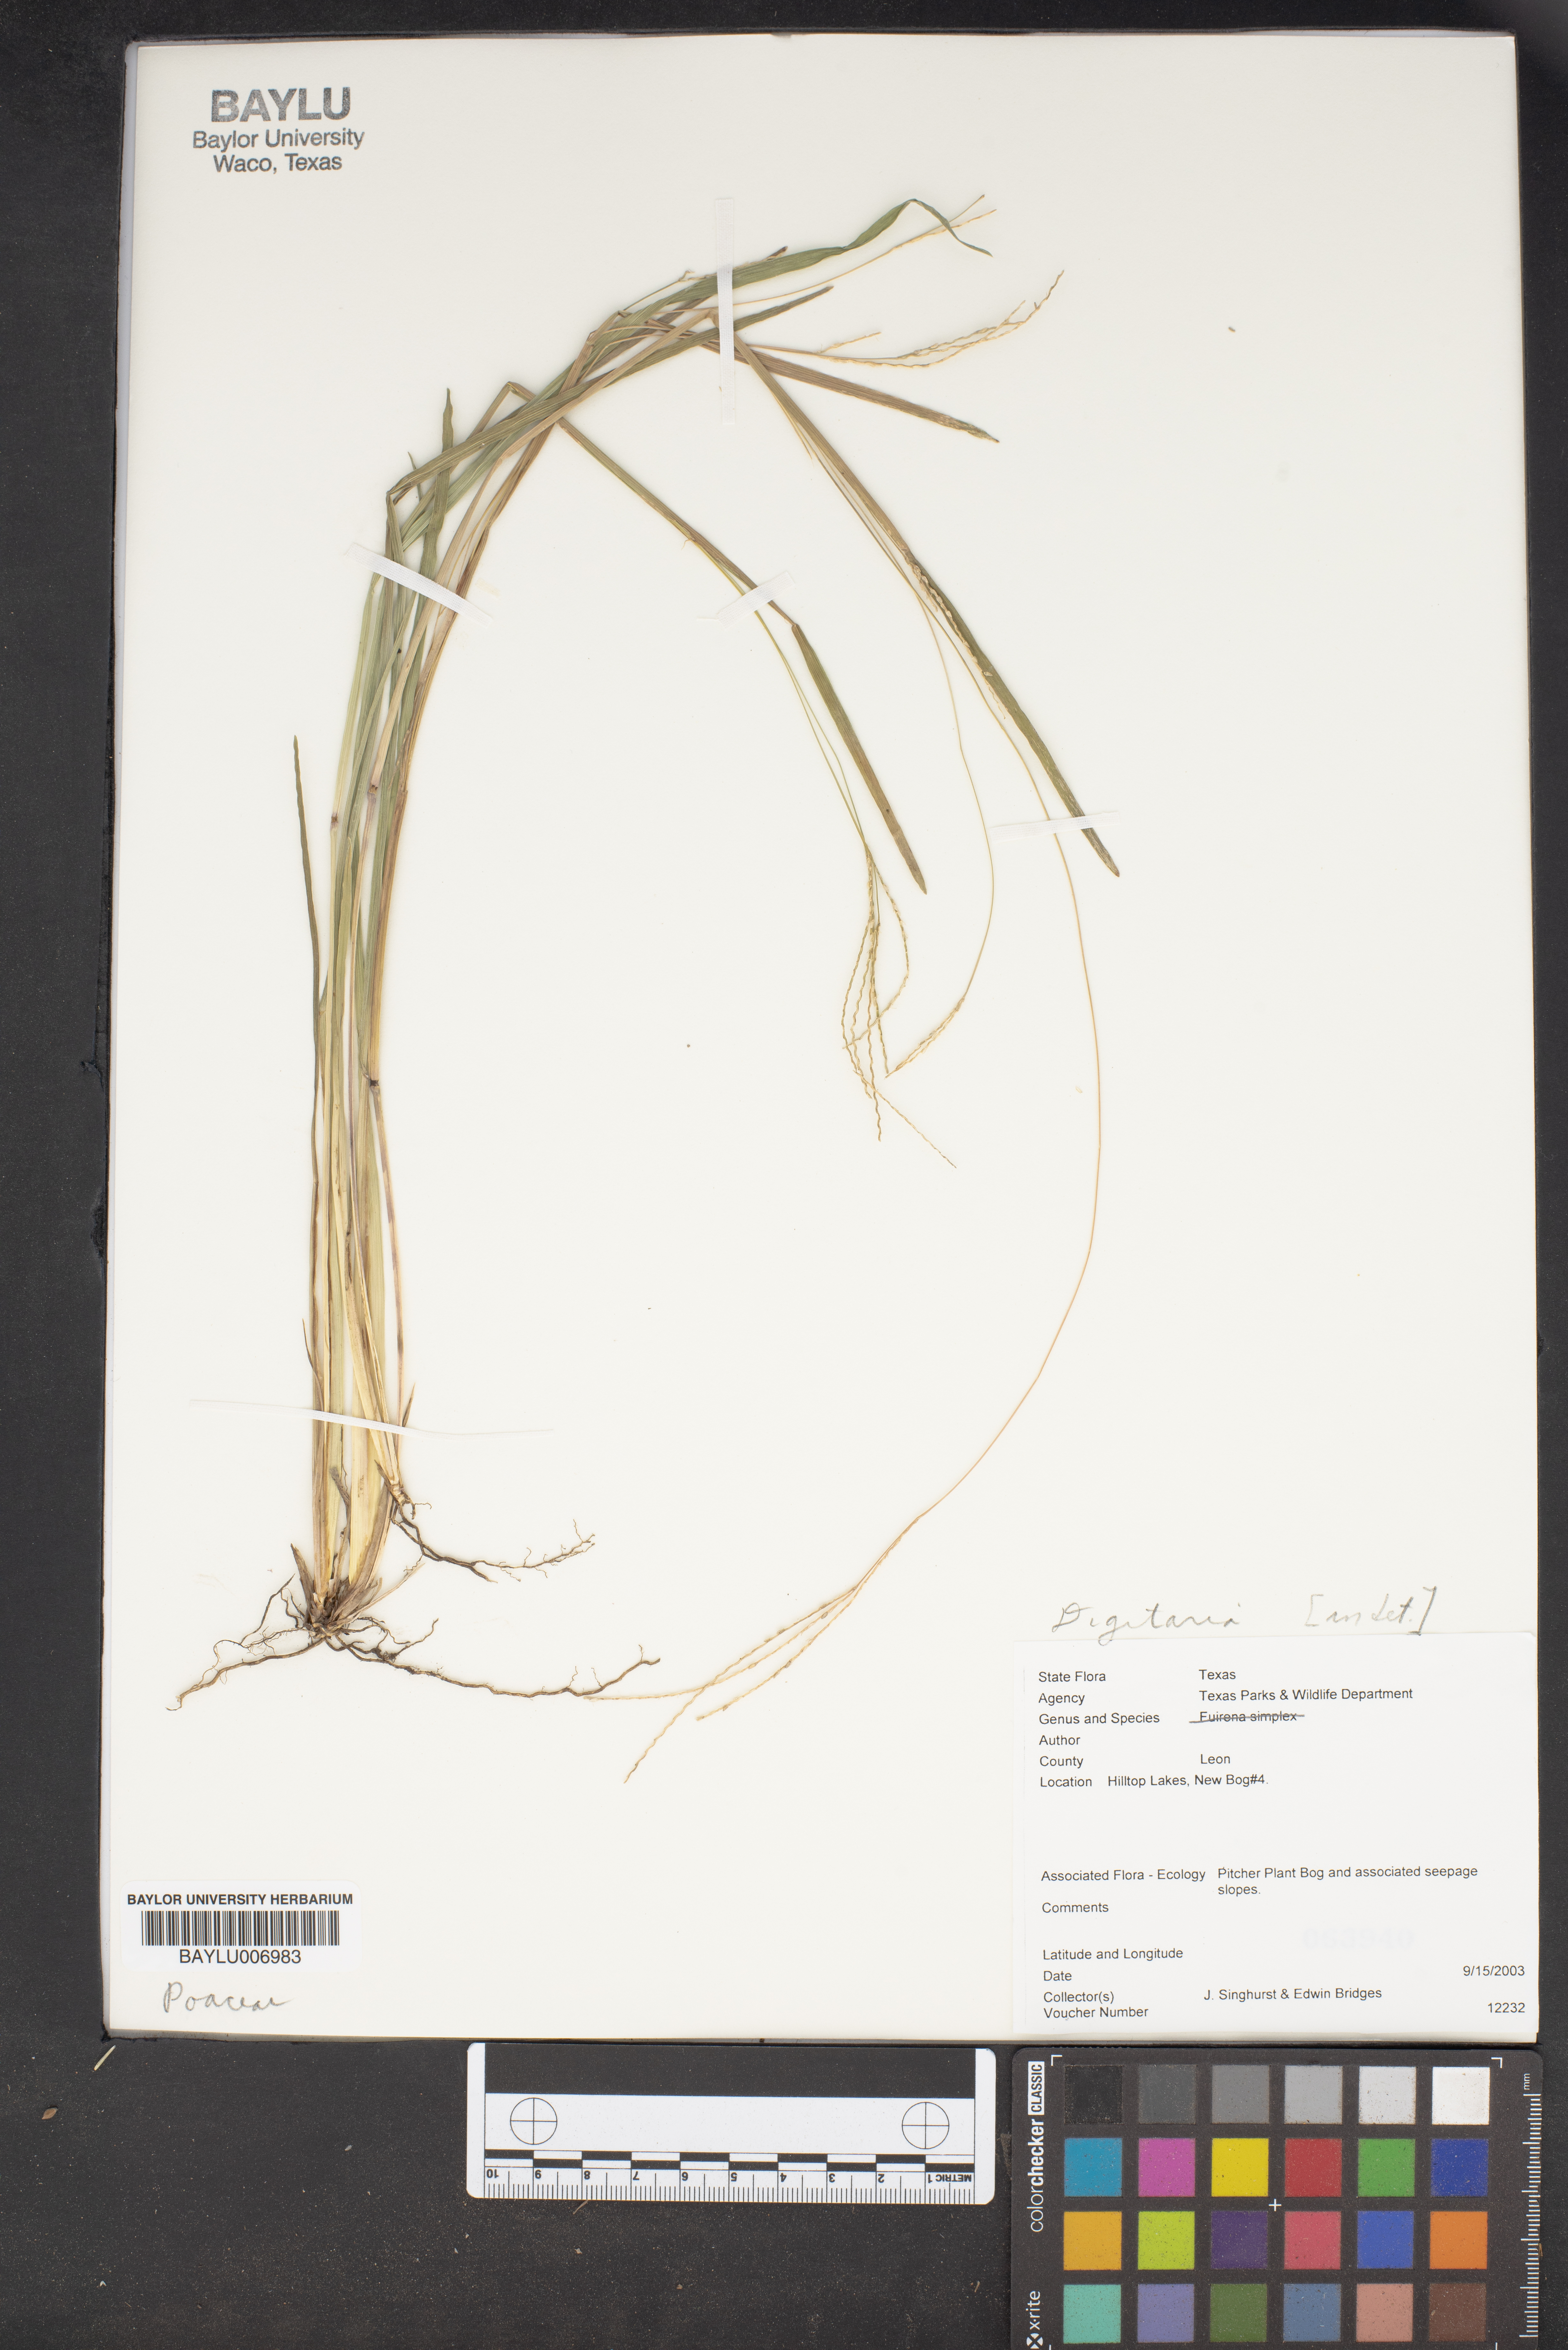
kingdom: Plantae
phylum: Tracheophyta
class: Liliopsida
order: Poales
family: Poaceae
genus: Digitaria
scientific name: Digitaria
